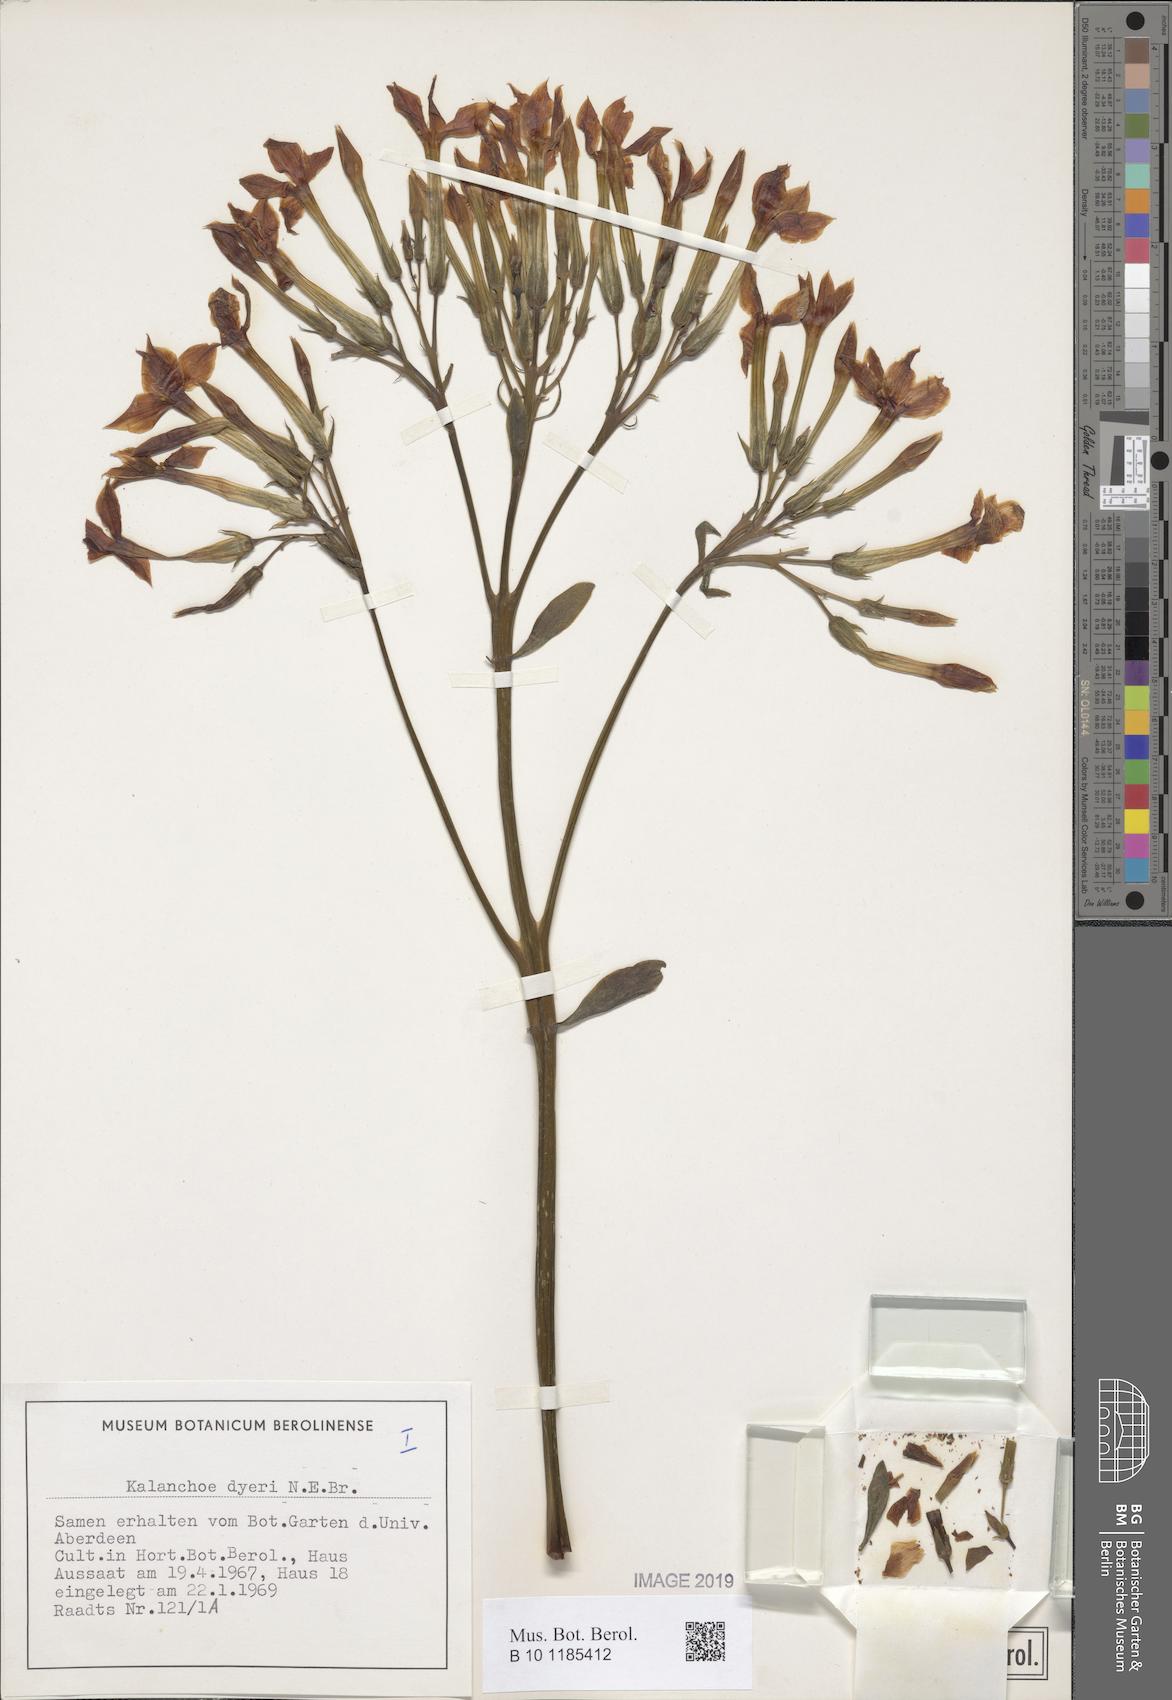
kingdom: Plantae
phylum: Tracheophyta
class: Magnoliopsida
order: Saxifragales
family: Crassulaceae
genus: Kalanchoe
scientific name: Kalanchoe dyeri
